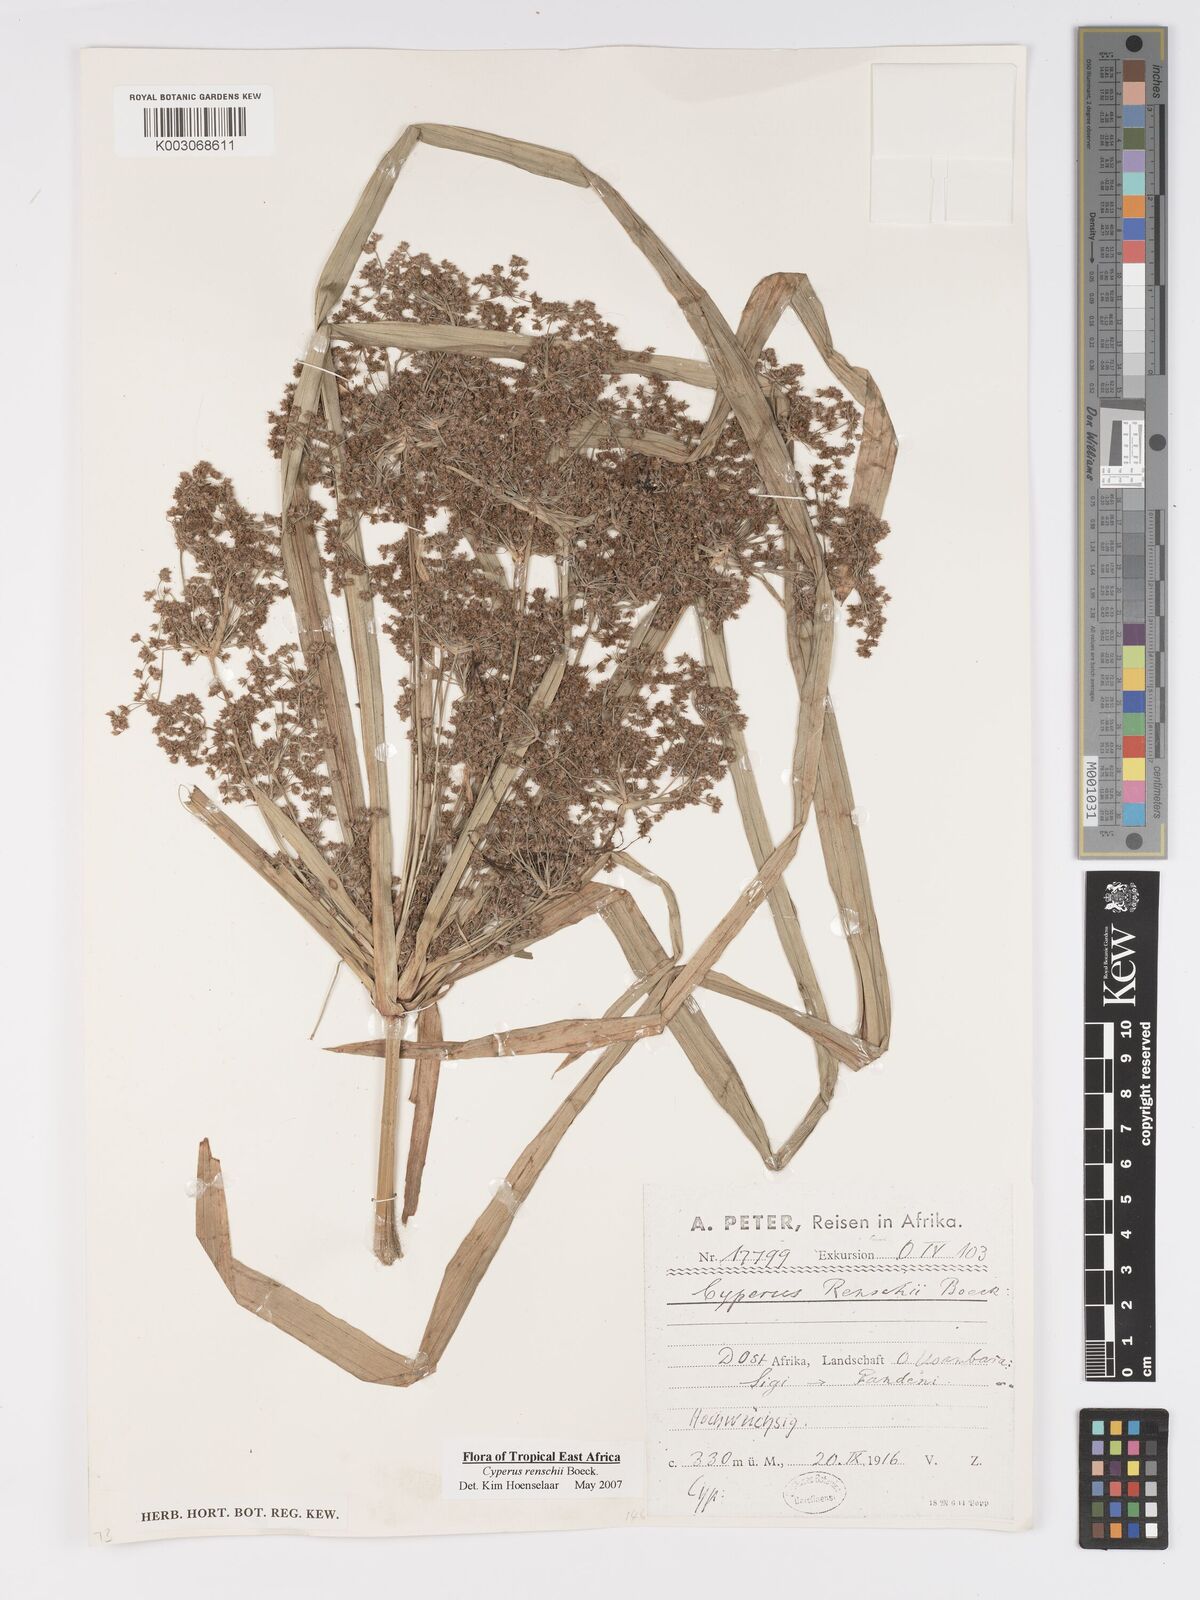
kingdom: Plantae
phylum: Tracheophyta
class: Liliopsida
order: Poales
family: Cyperaceae
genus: Cyperus
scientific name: Cyperus renschii
